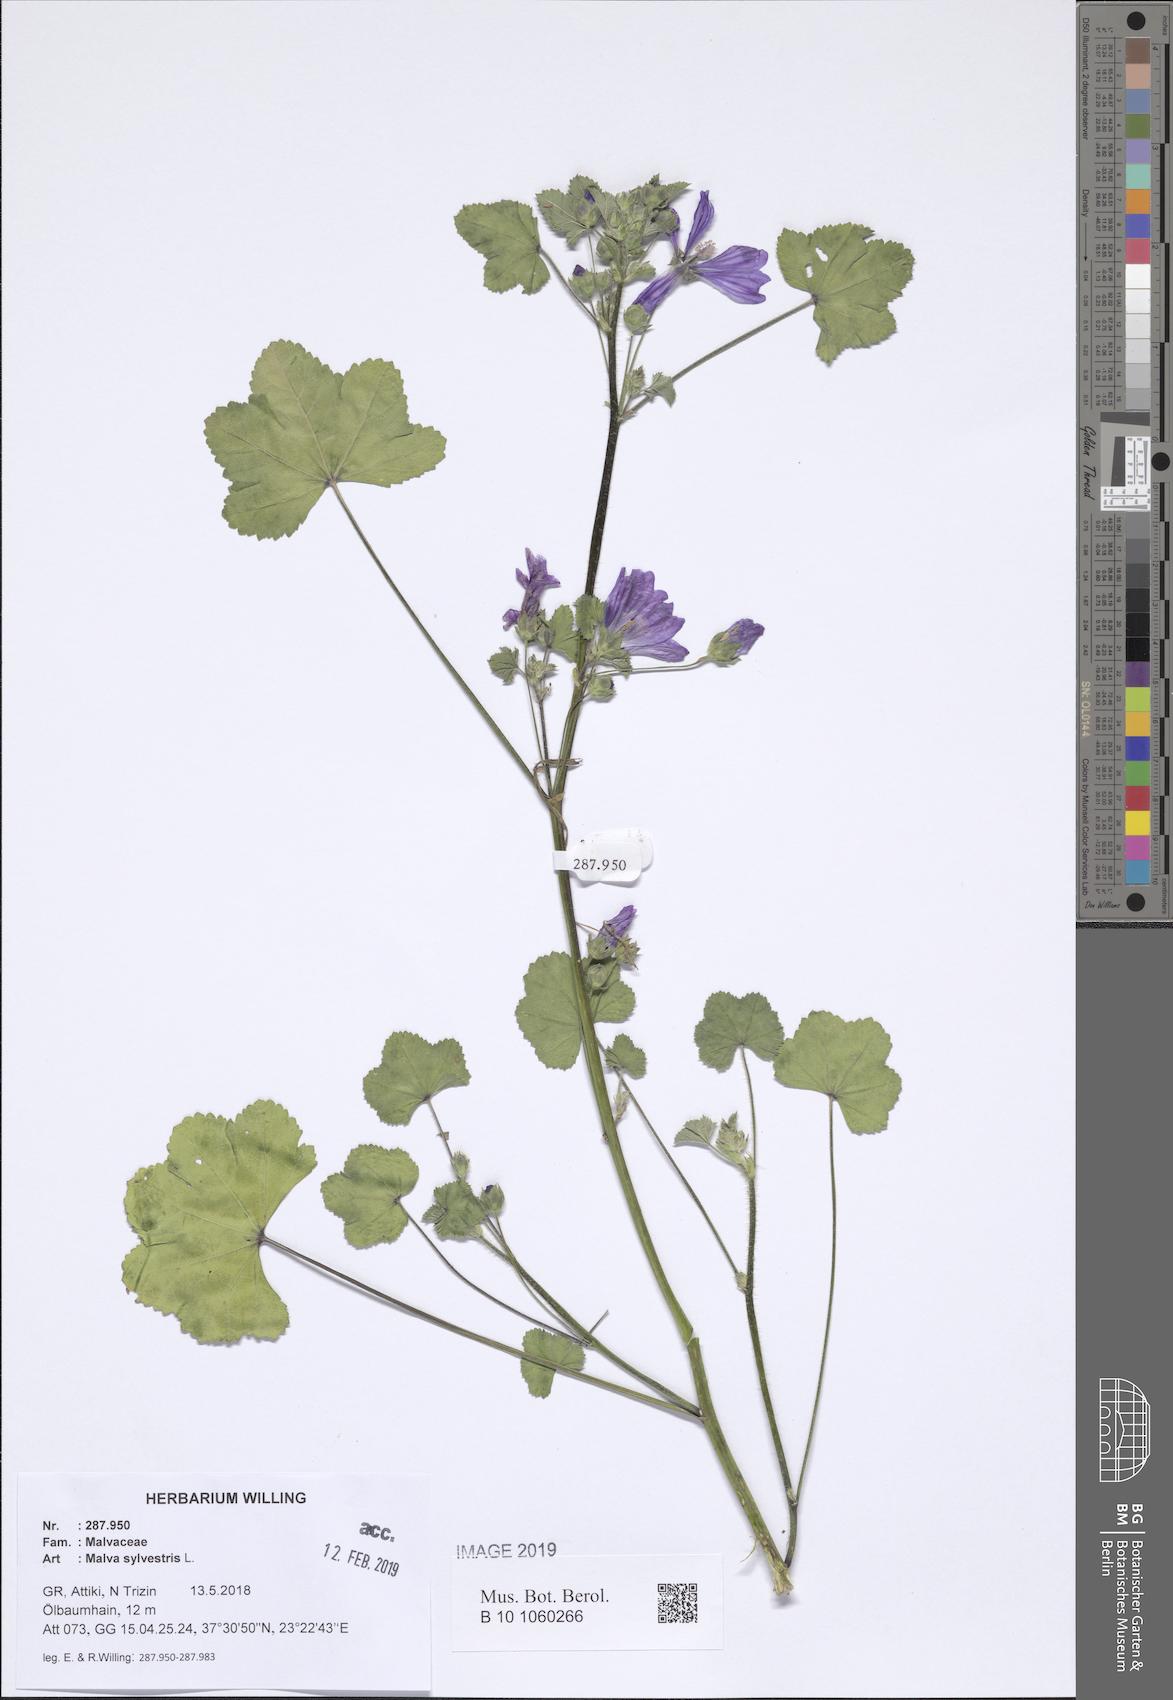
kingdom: Plantae
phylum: Tracheophyta
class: Magnoliopsida
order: Malvales
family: Malvaceae
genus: Malva
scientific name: Malva sylvestris
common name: Common mallow
